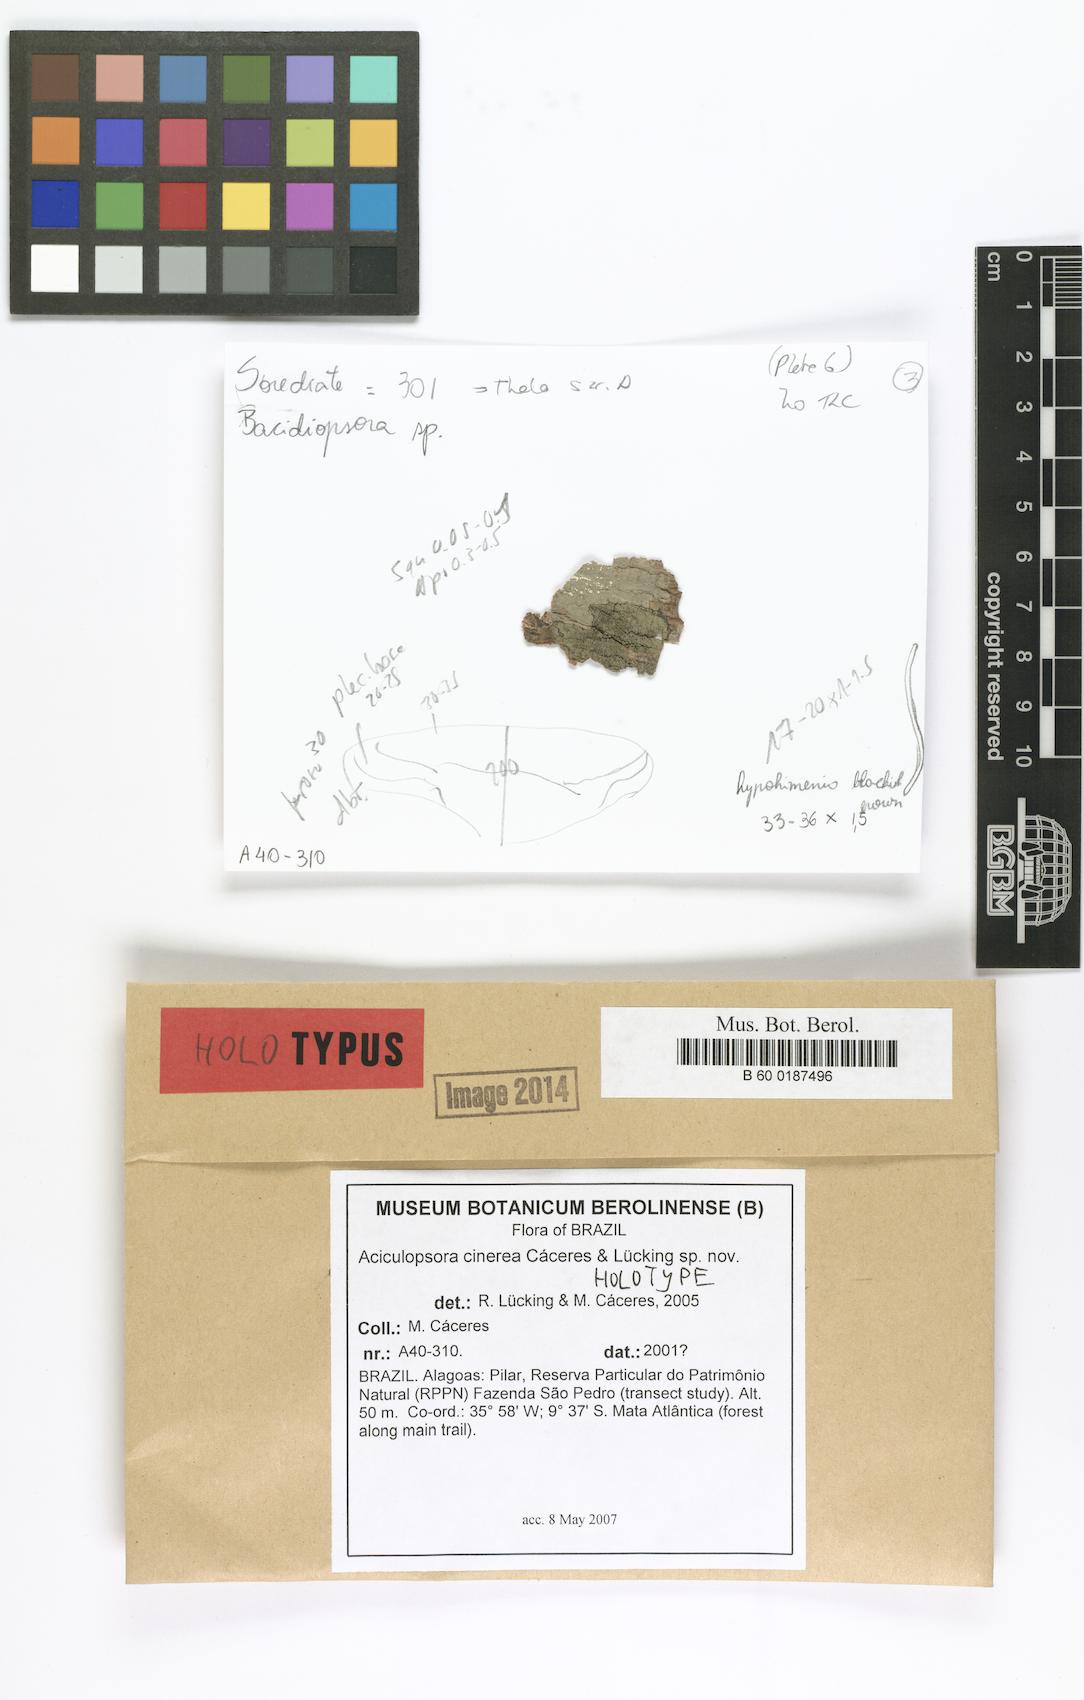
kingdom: Fungi
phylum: Ascomycota
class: Lecanoromycetes
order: Lecanorales
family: Ramalinaceae
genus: Aciculopsora
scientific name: Aciculopsora cinerea
